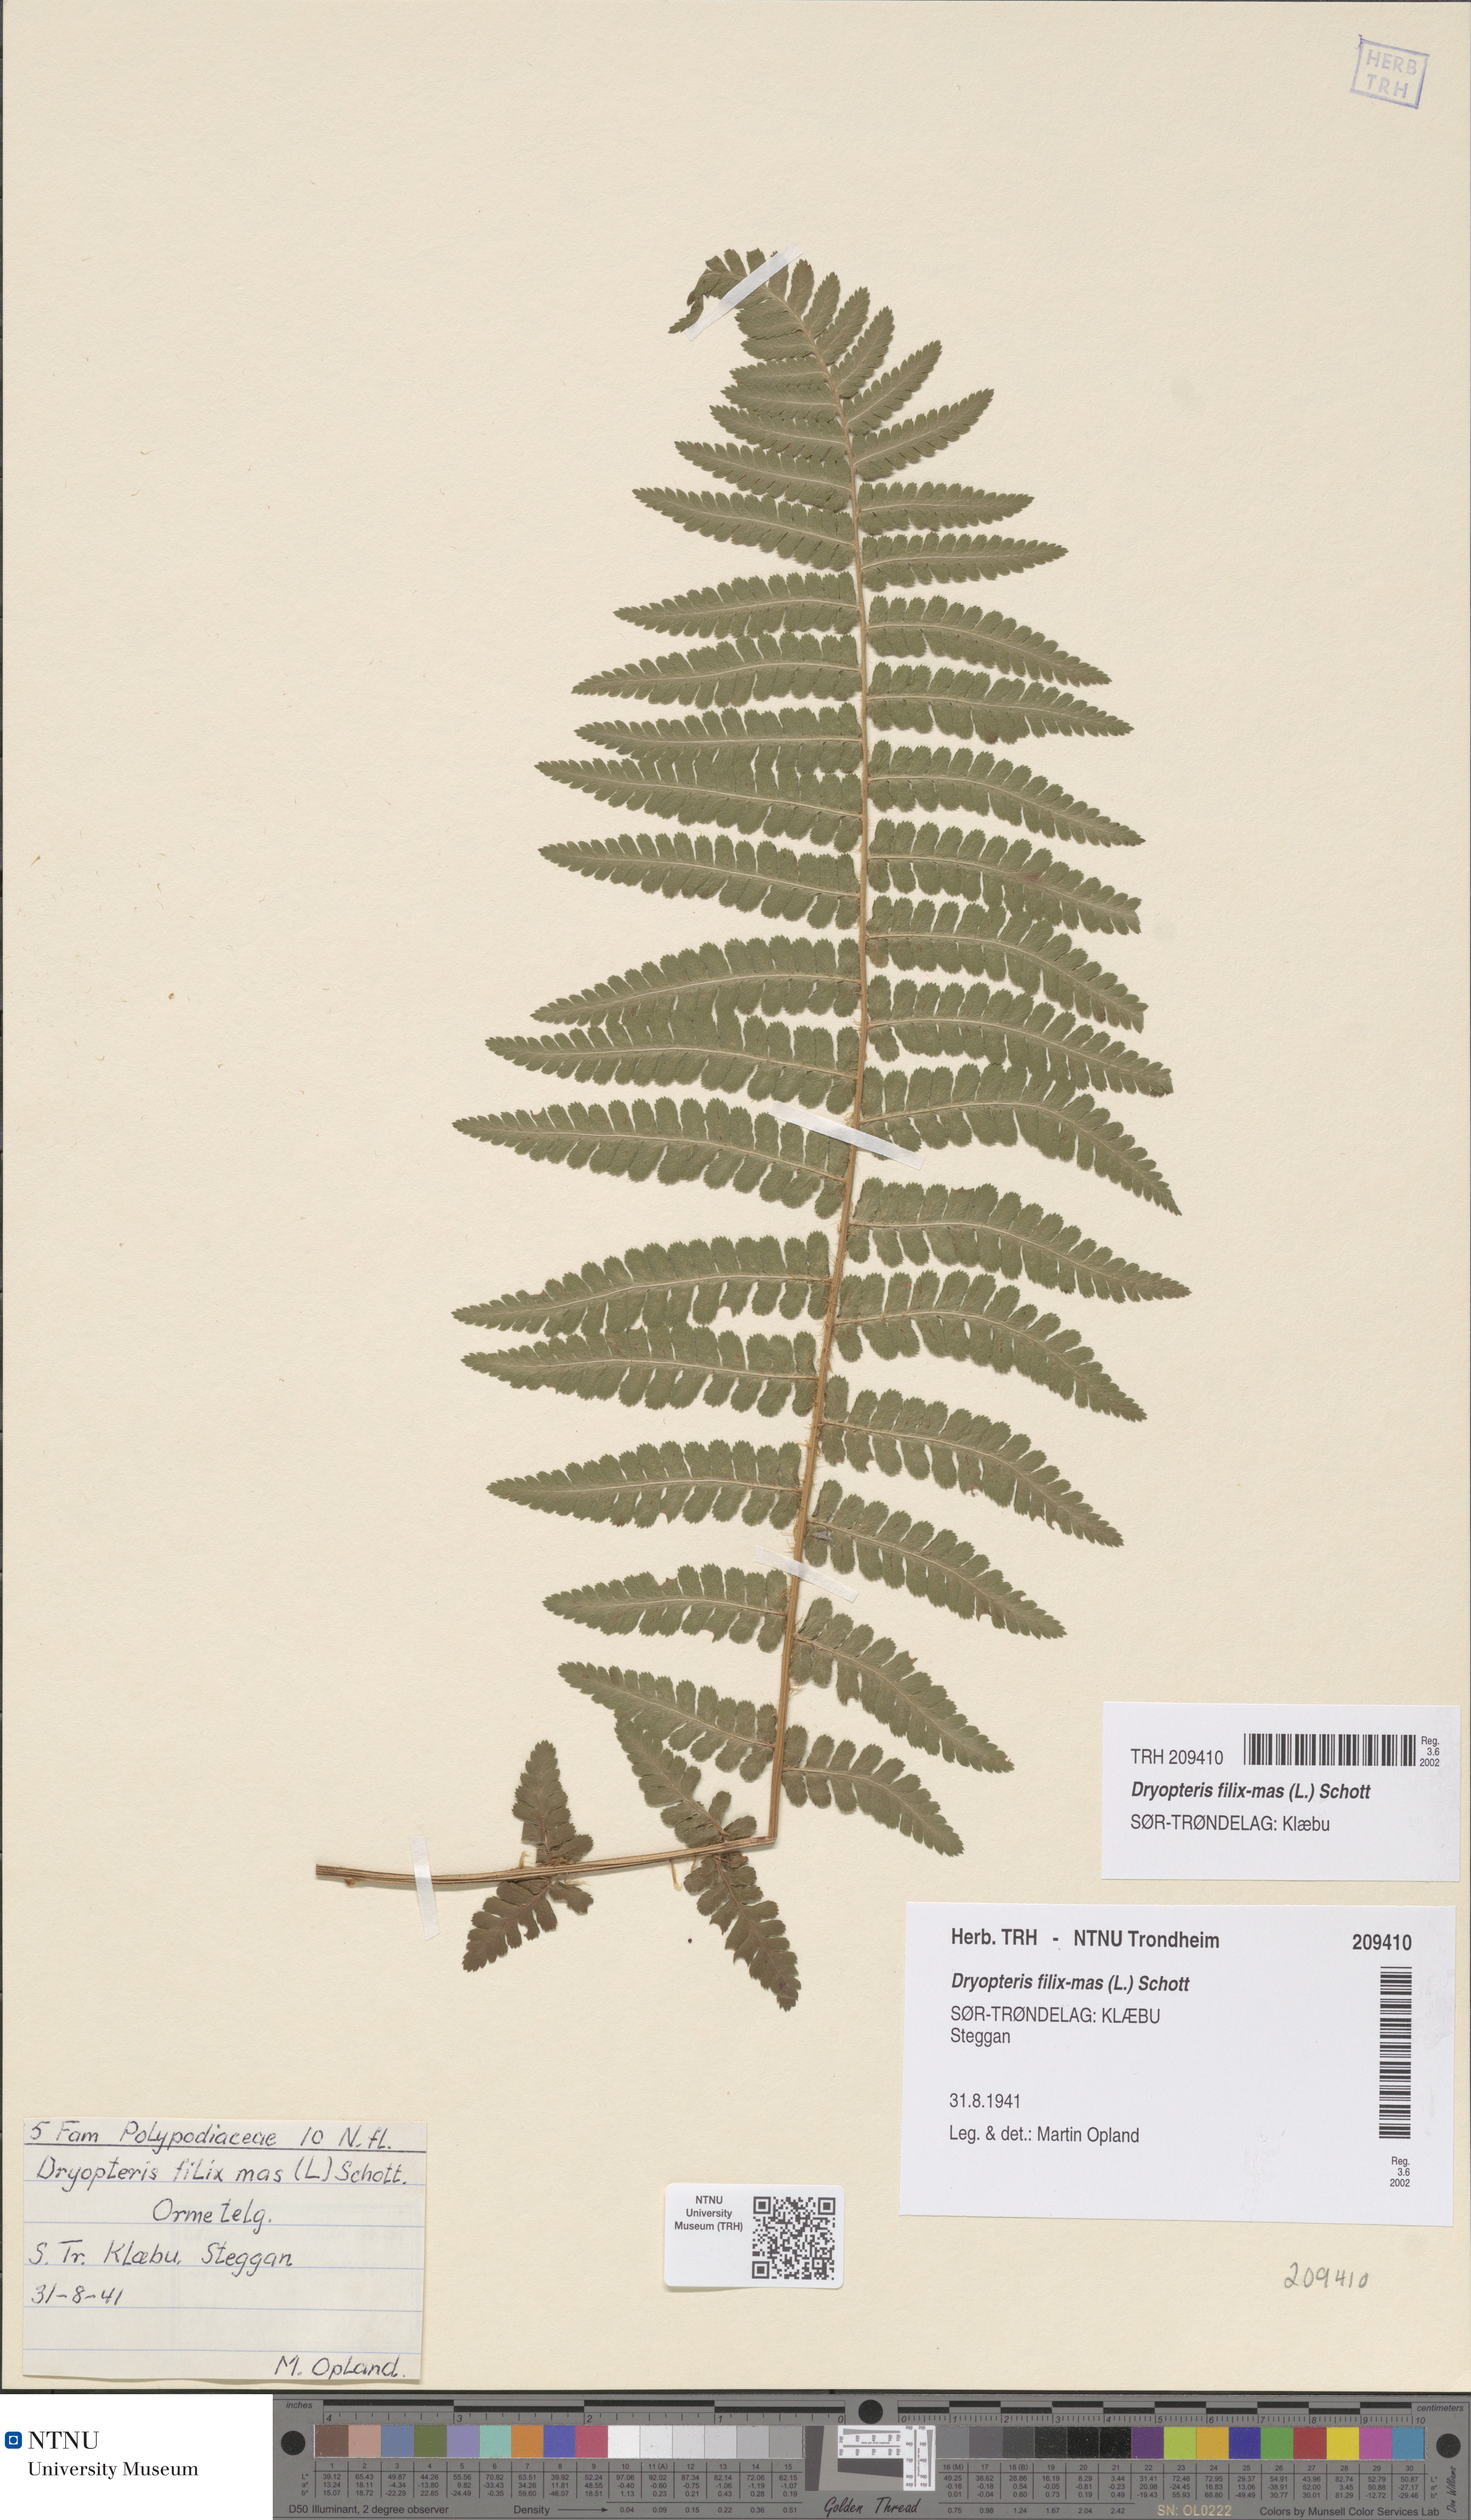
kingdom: Plantae
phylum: Tracheophyta
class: Polypodiopsida
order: Polypodiales
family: Dryopteridaceae
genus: Dryopteris
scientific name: Dryopteris filix-mas
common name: Male fern
